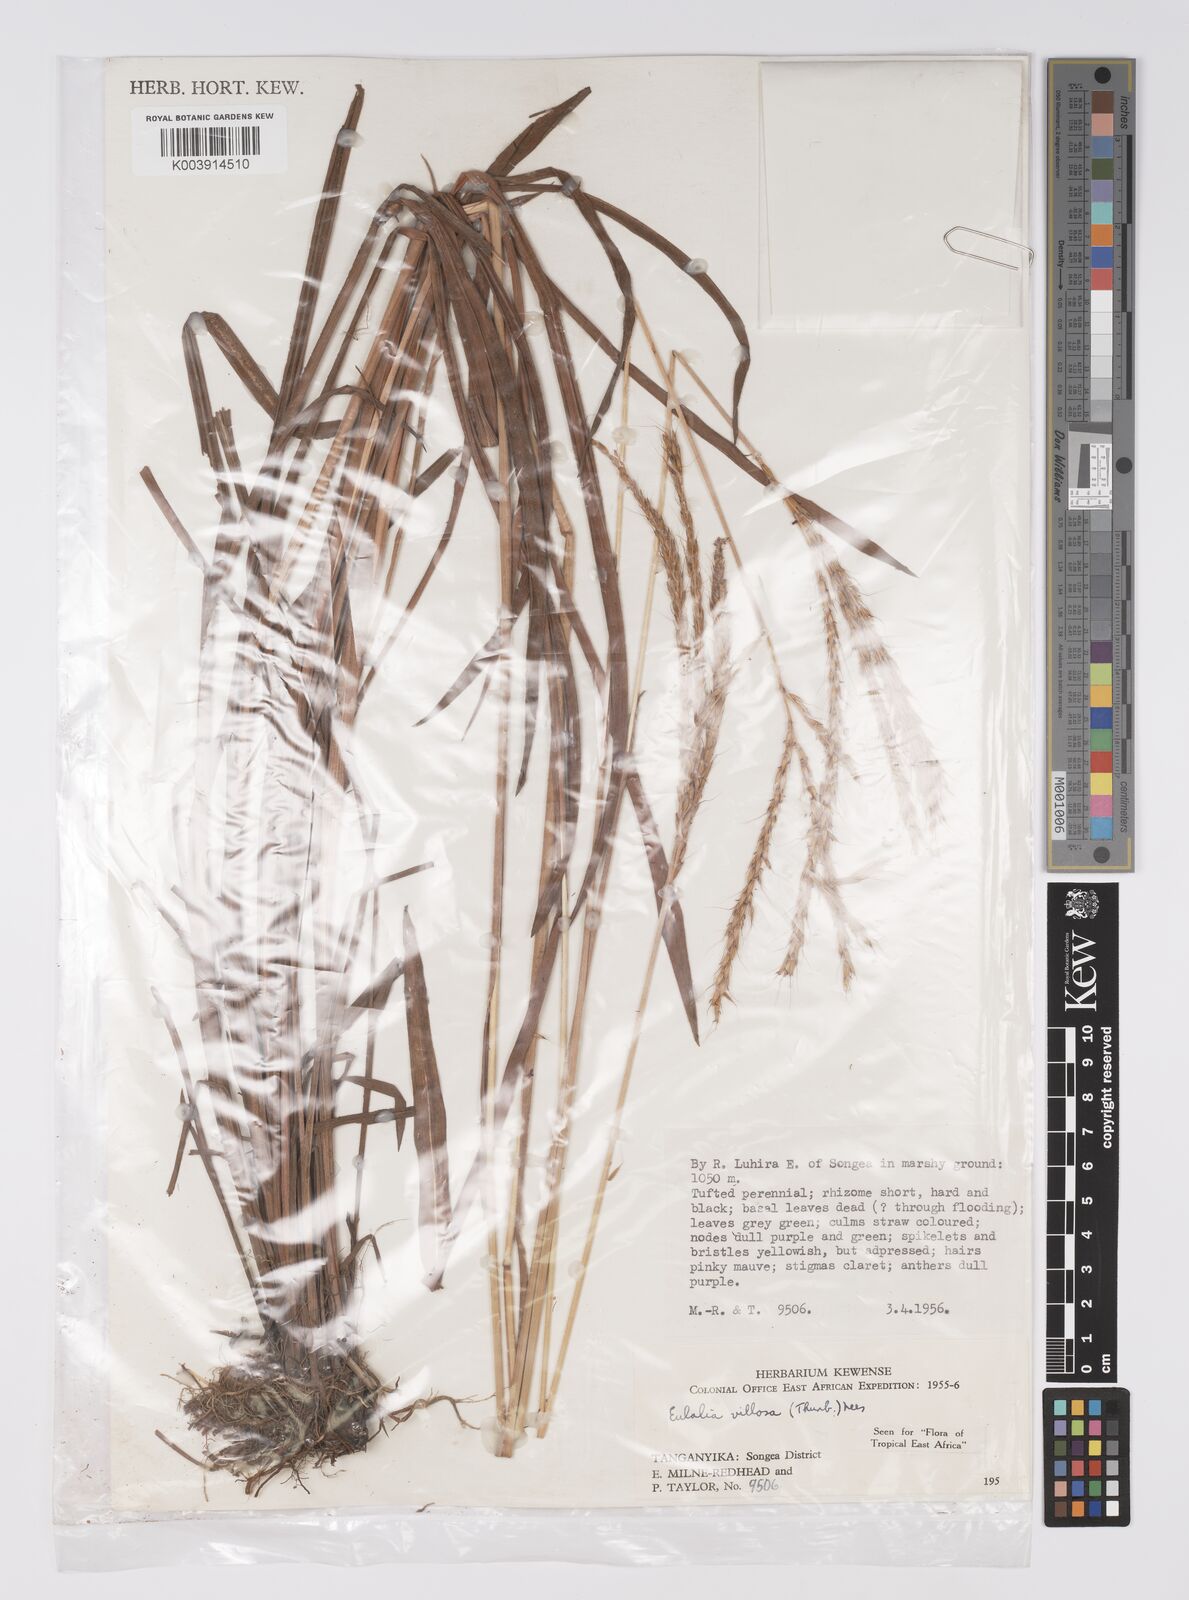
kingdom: Plantae
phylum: Tracheophyta
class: Liliopsida
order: Poales
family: Poaceae
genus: Eulalia
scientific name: Eulalia villosa
